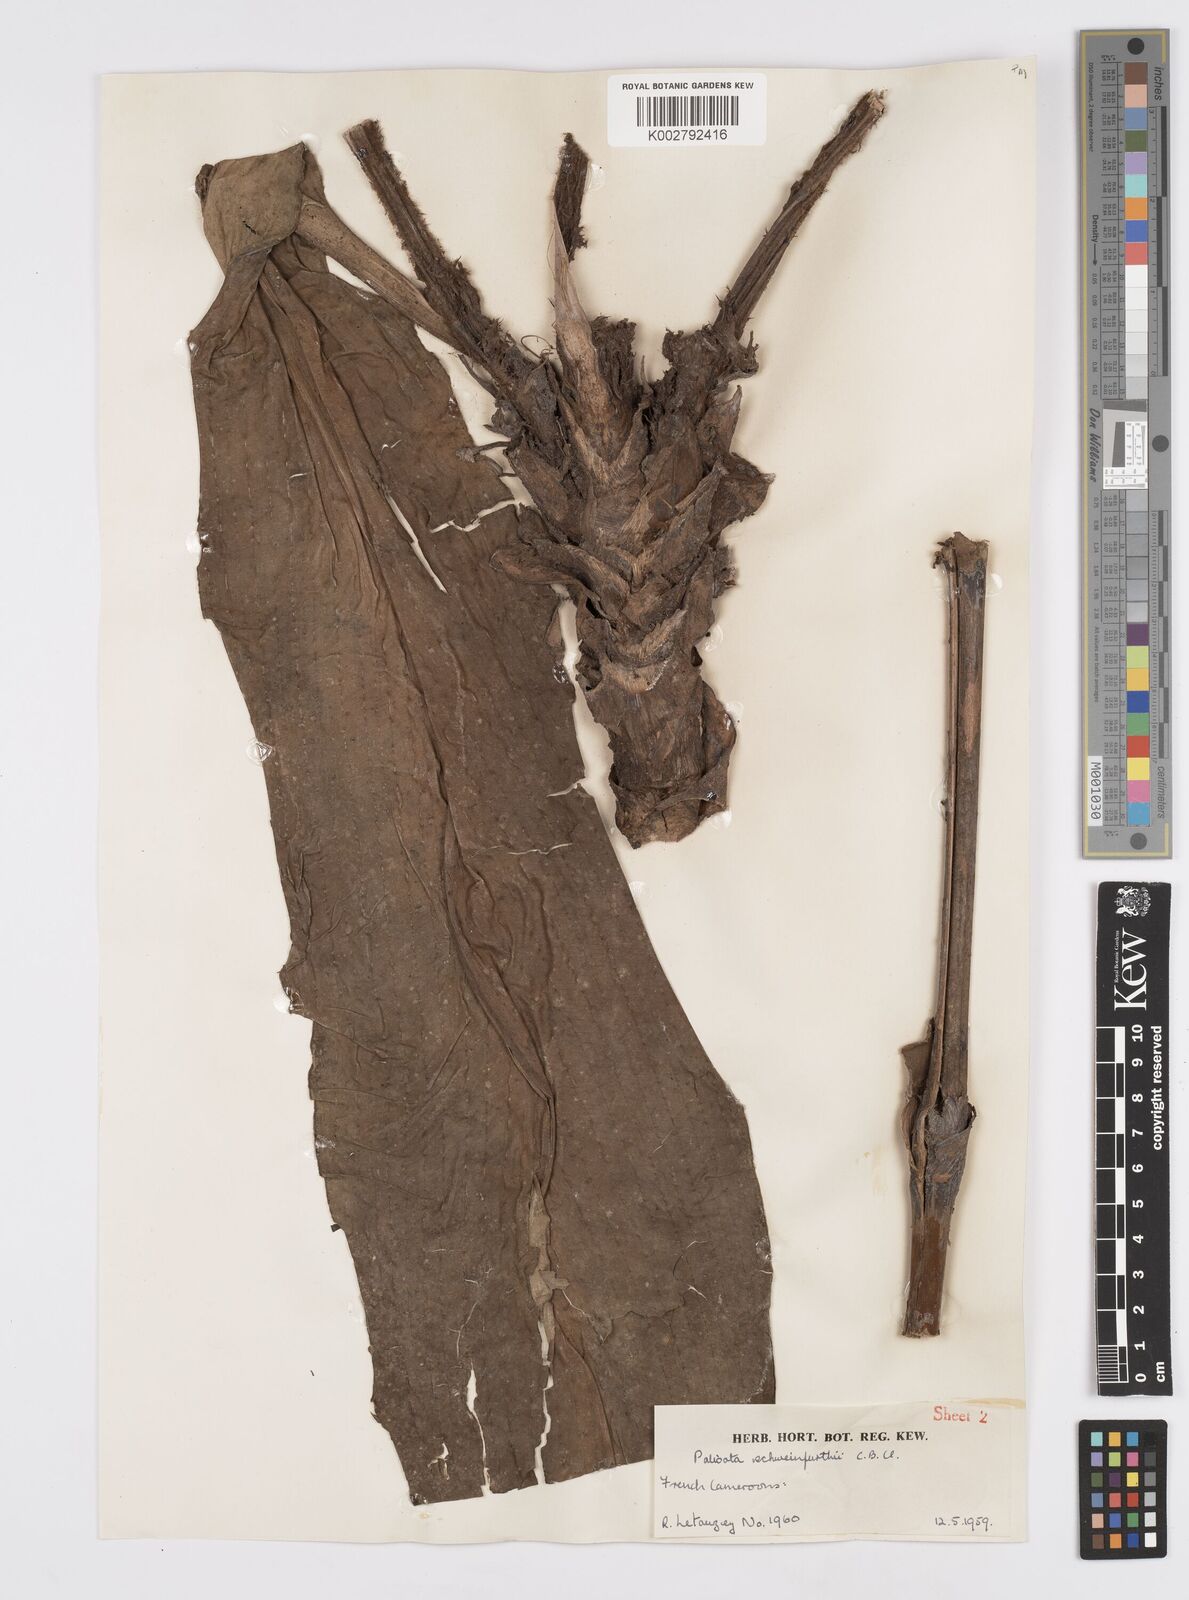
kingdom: Plantae
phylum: Tracheophyta
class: Liliopsida
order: Commelinales
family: Commelinaceae
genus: Palisota
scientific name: Palisota schweinfurthii
